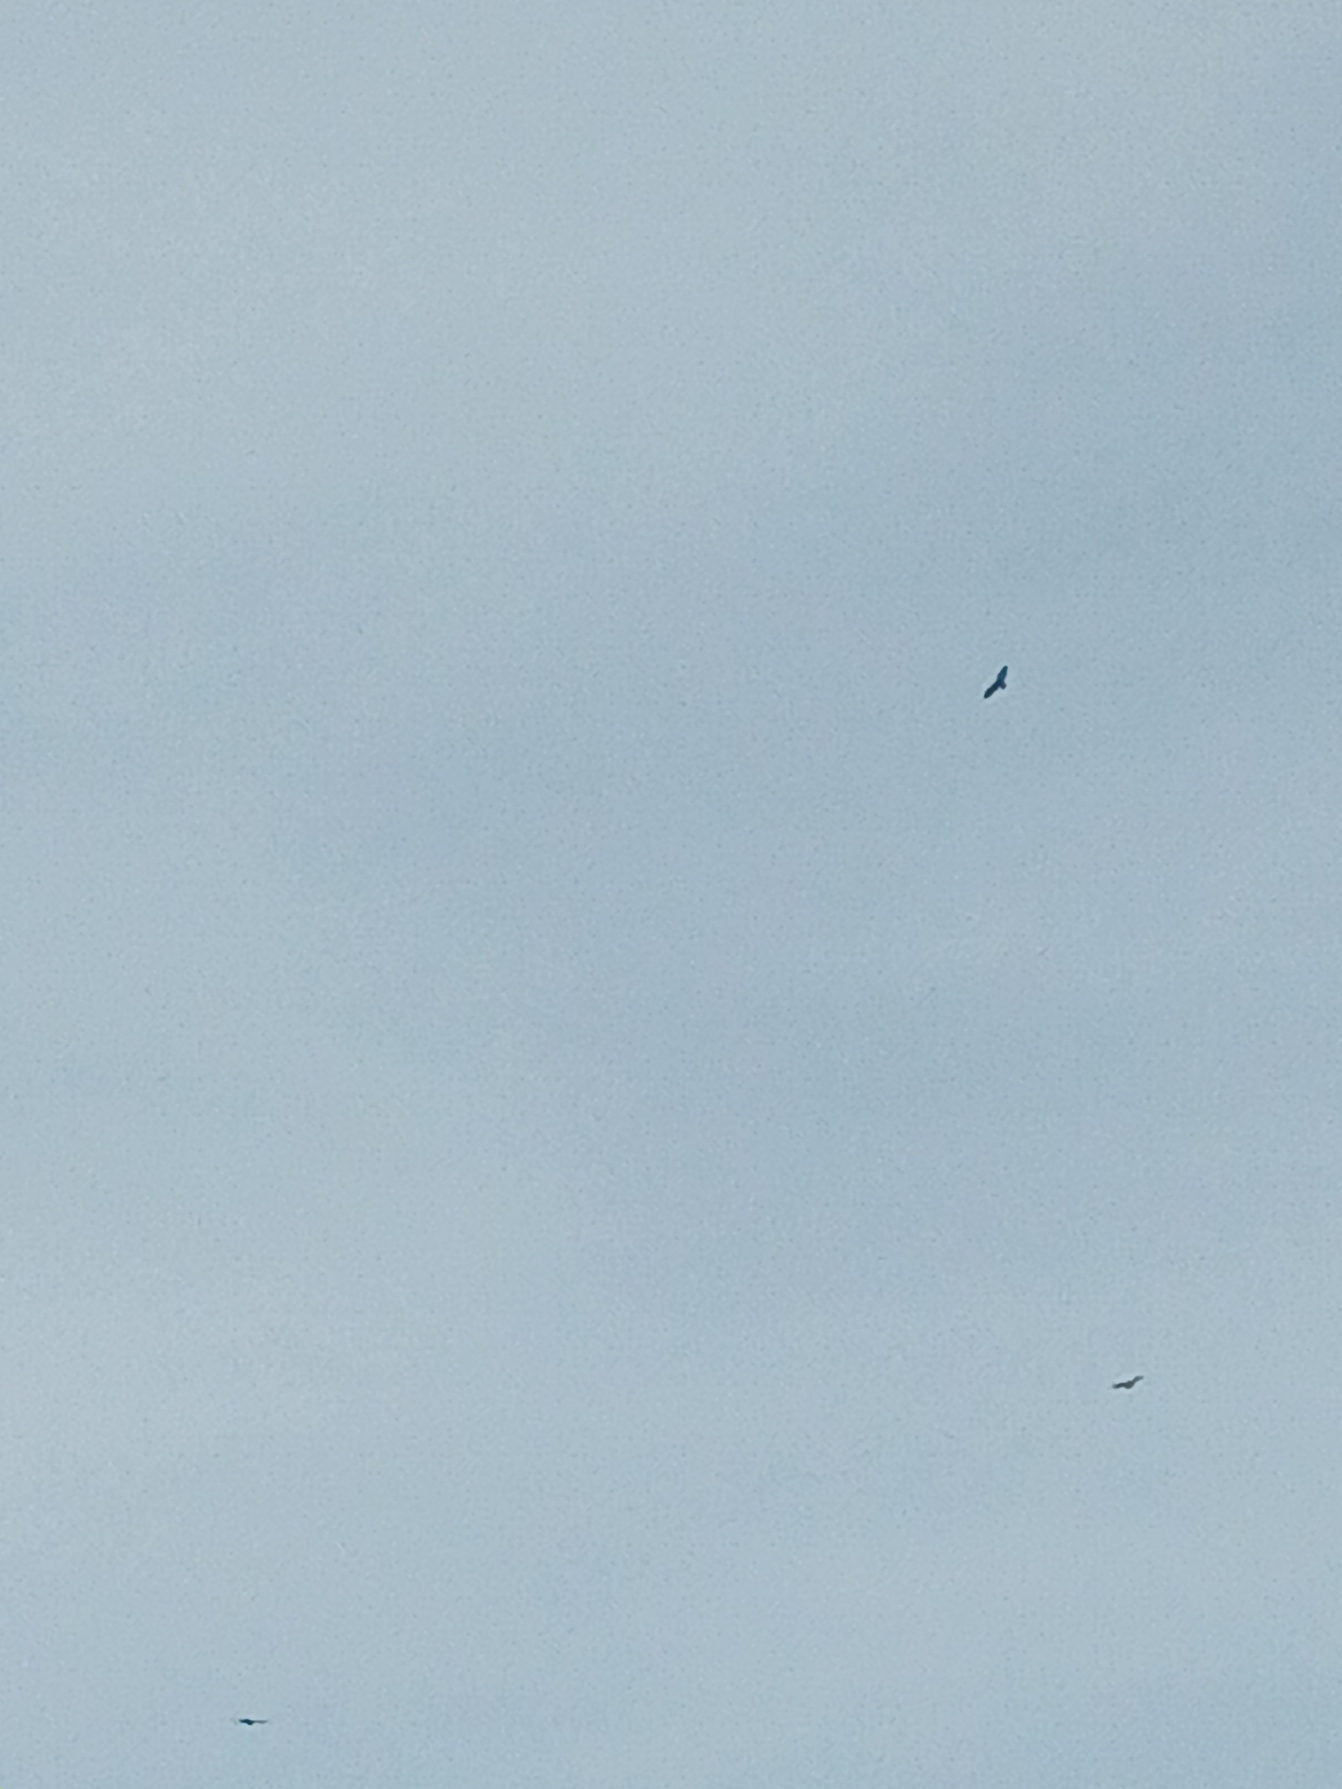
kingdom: Animalia
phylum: Chordata
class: Aves
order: Accipitriformes
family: Accipitridae
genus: Buteo
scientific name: Buteo buteo
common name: Musvåge
